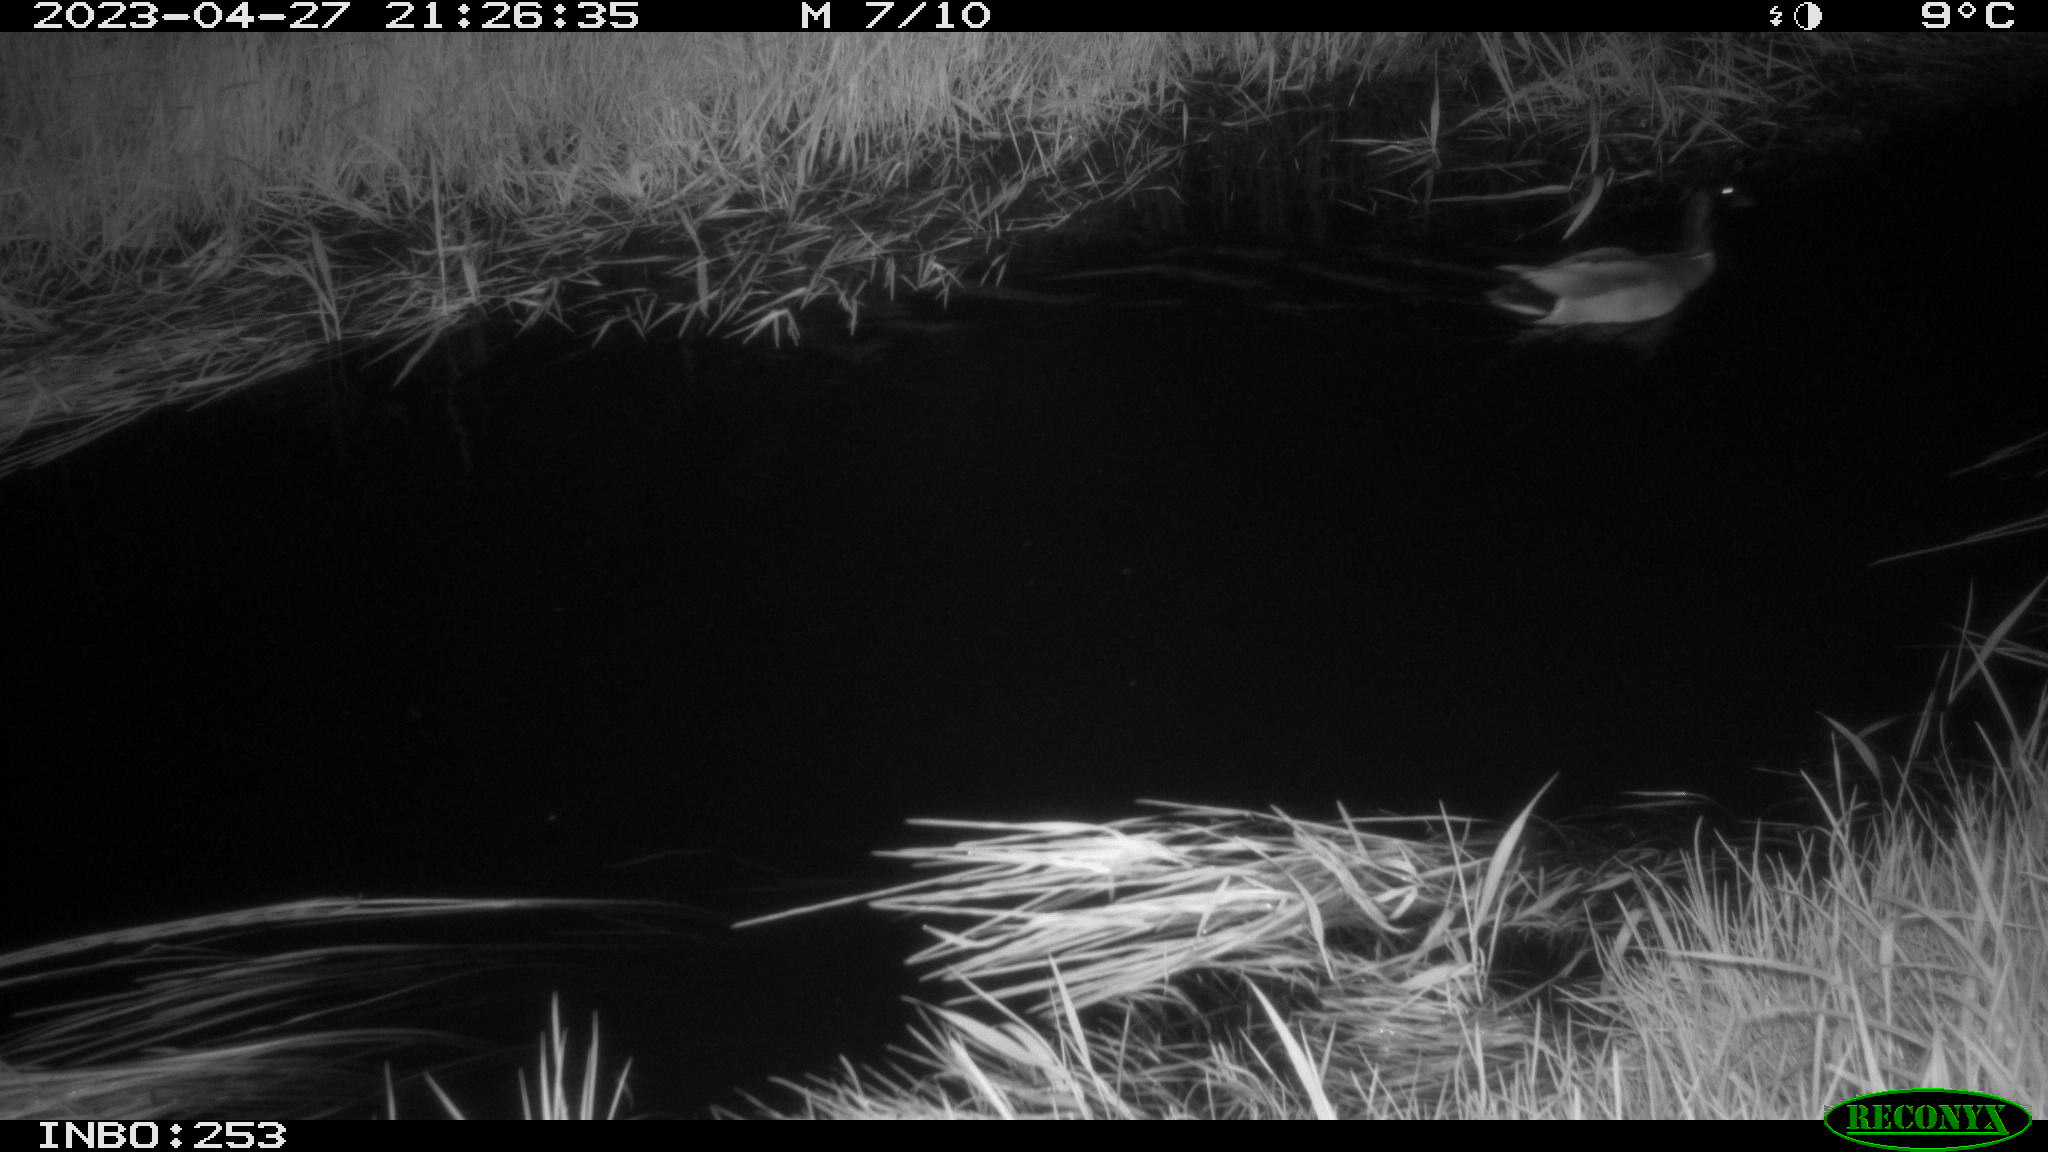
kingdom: Animalia
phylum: Chordata
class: Aves
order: Anseriformes
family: Anatidae
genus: Anas
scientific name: Anas
